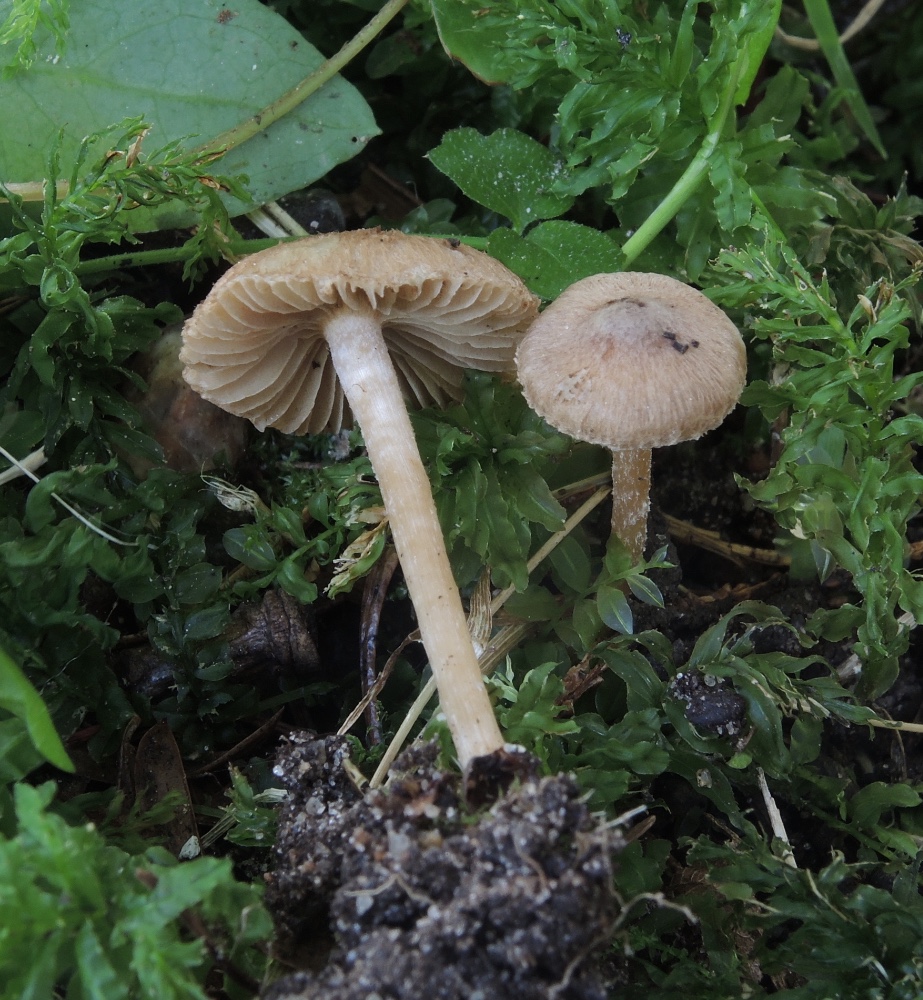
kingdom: Fungi
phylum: Basidiomycota
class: Agaricomycetes
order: Agaricales
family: Inocybaceae
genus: Inocybe
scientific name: Inocybe
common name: trævlhat
